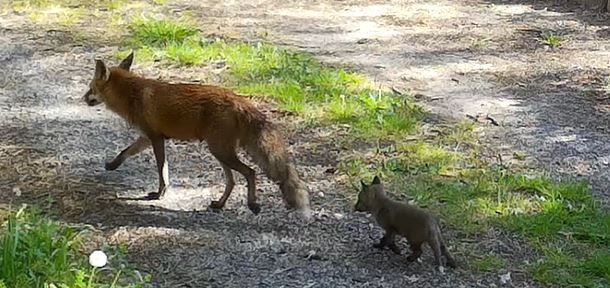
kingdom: Animalia
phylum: Chordata
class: Mammalia
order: Carnivora
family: Canidae
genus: Vulpes
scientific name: Vulpes vulpes
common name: Ræv
